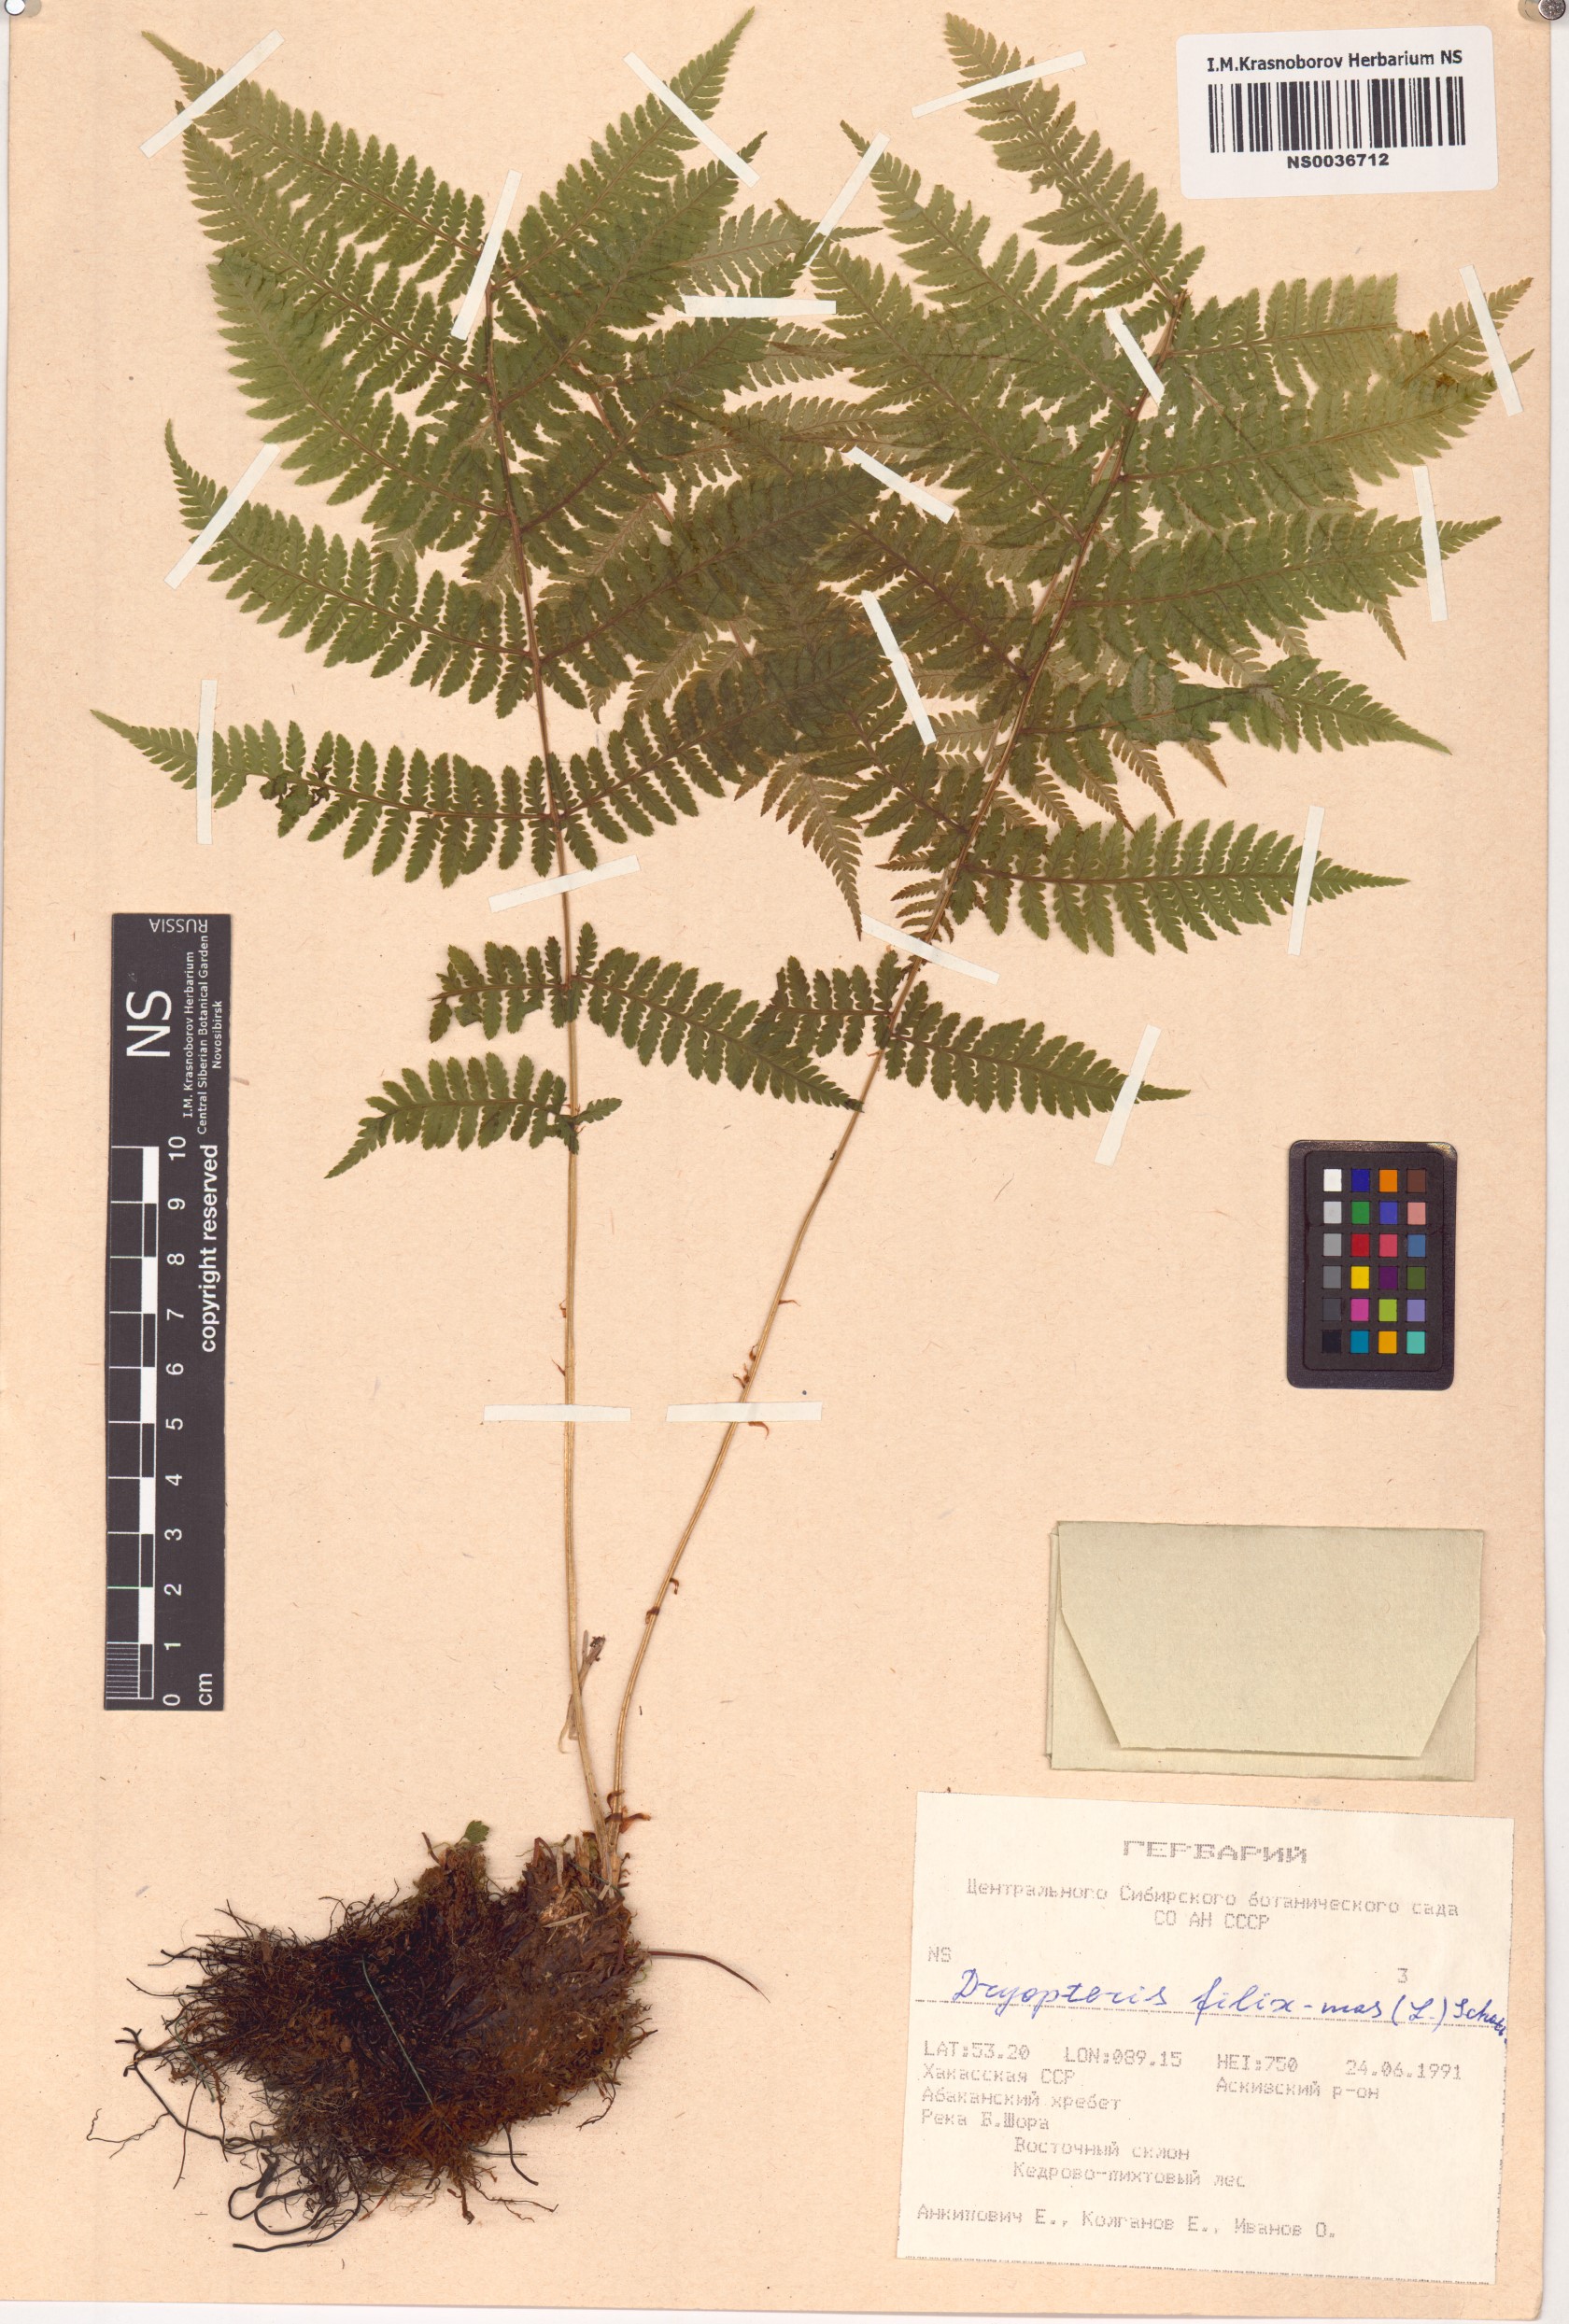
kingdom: Plantae
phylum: Tracheophyta
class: Polypodiopsida
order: Polypodiales
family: Dryopteridaceae
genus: Dryopteris
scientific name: Dryopteris filix-mas
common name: Male fern
